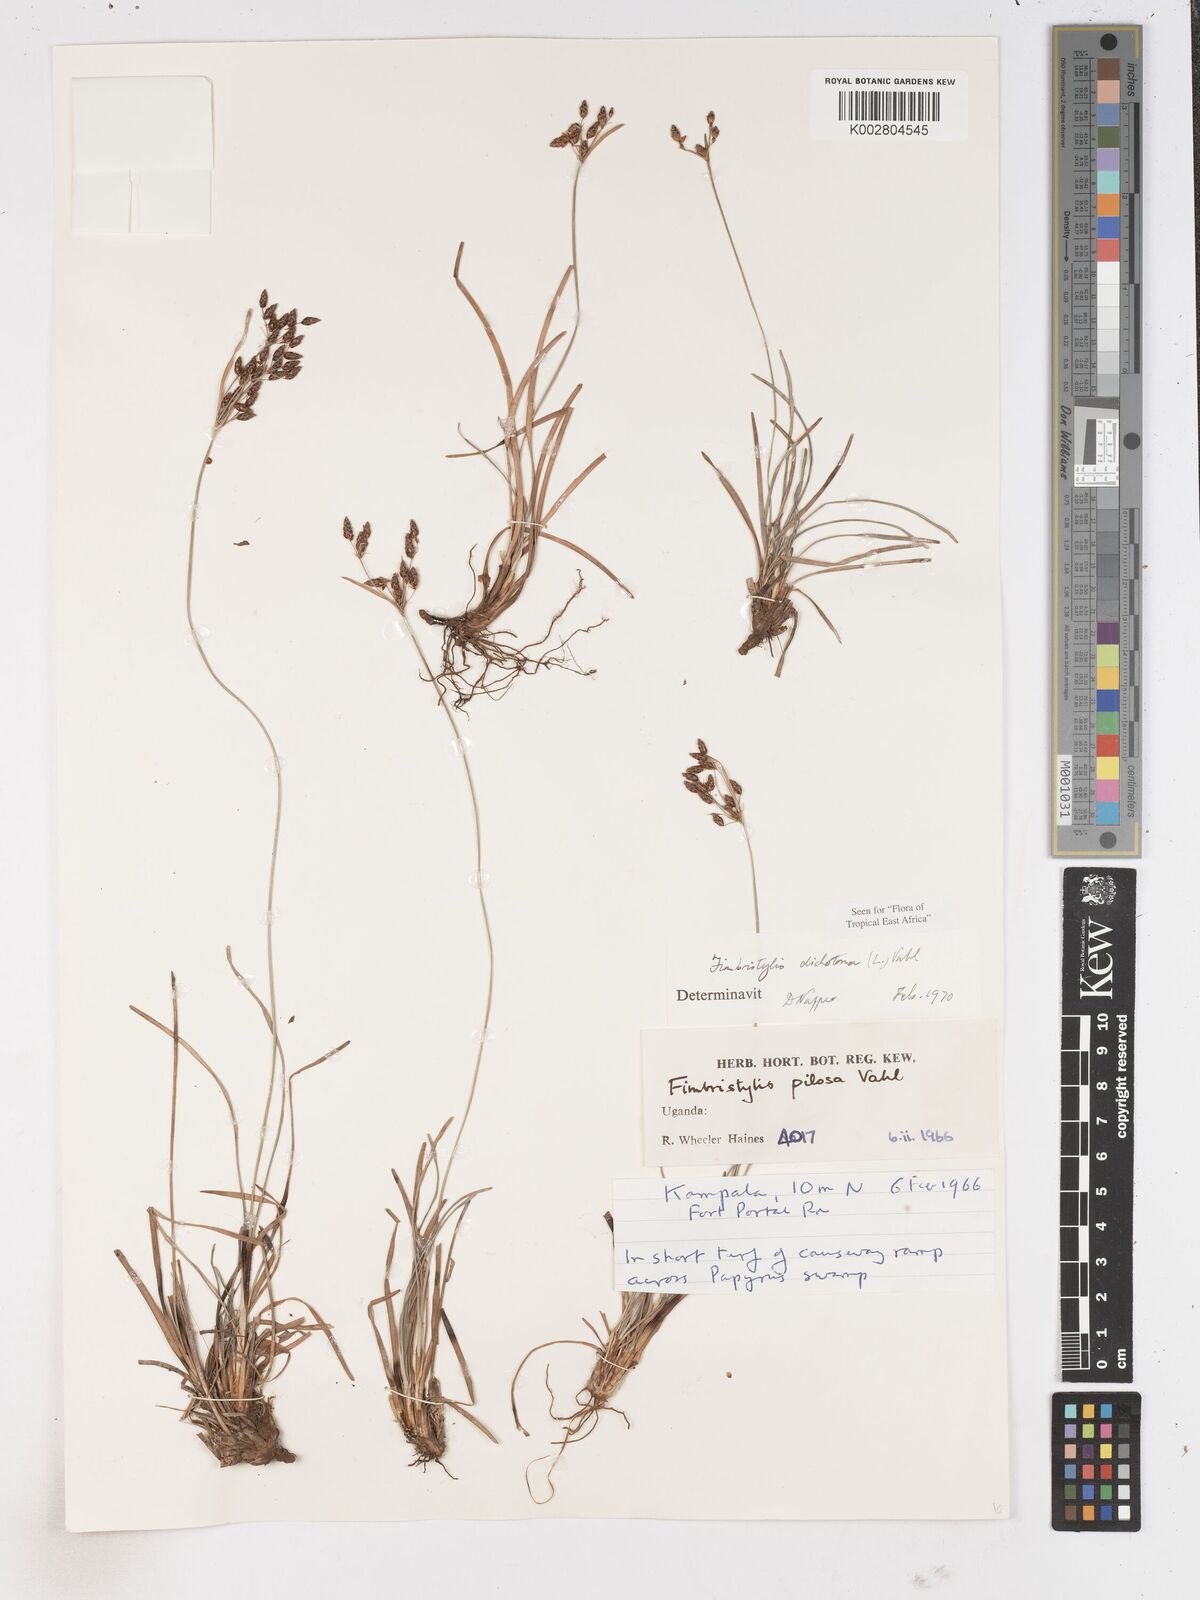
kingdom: Plantae
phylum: Tracheophyta
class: Liliopsida
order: Poales
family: Cyperaceae
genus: Fimbristylis
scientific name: Fimbristylis dichotoma
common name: Forked fimbry
